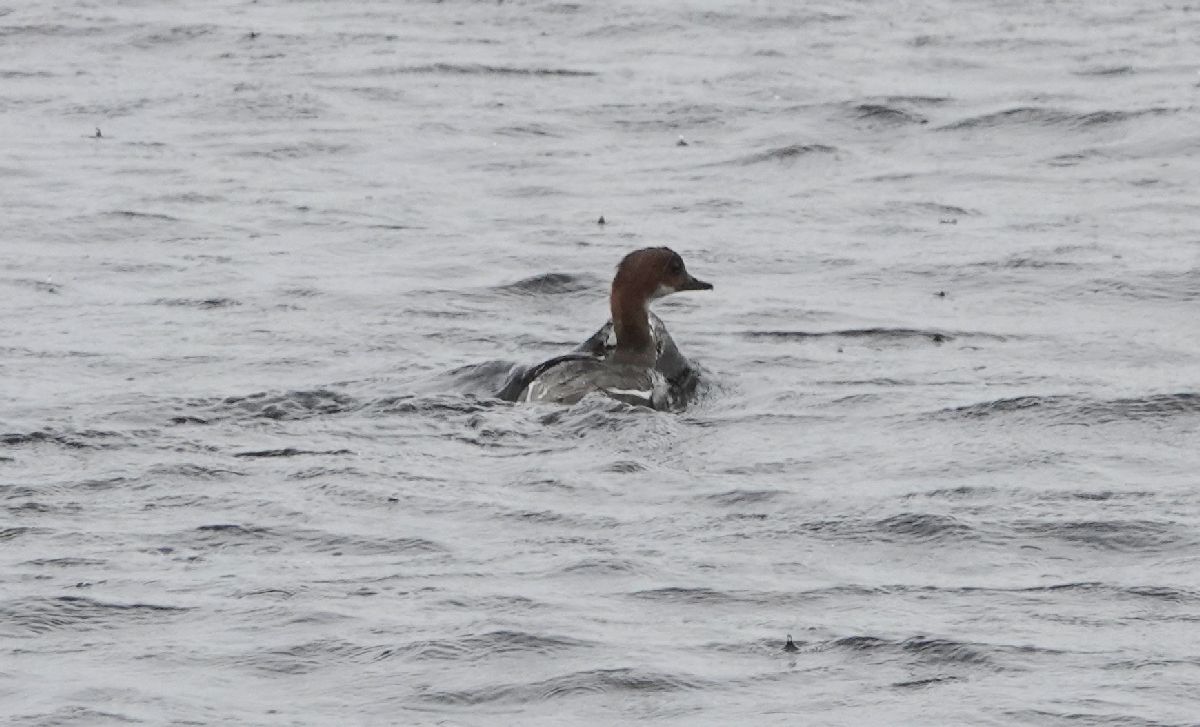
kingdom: Animalia
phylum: Chordata
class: Aves
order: Anseriformes
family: Anatidae
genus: Mergellus
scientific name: Mergellus albellus
